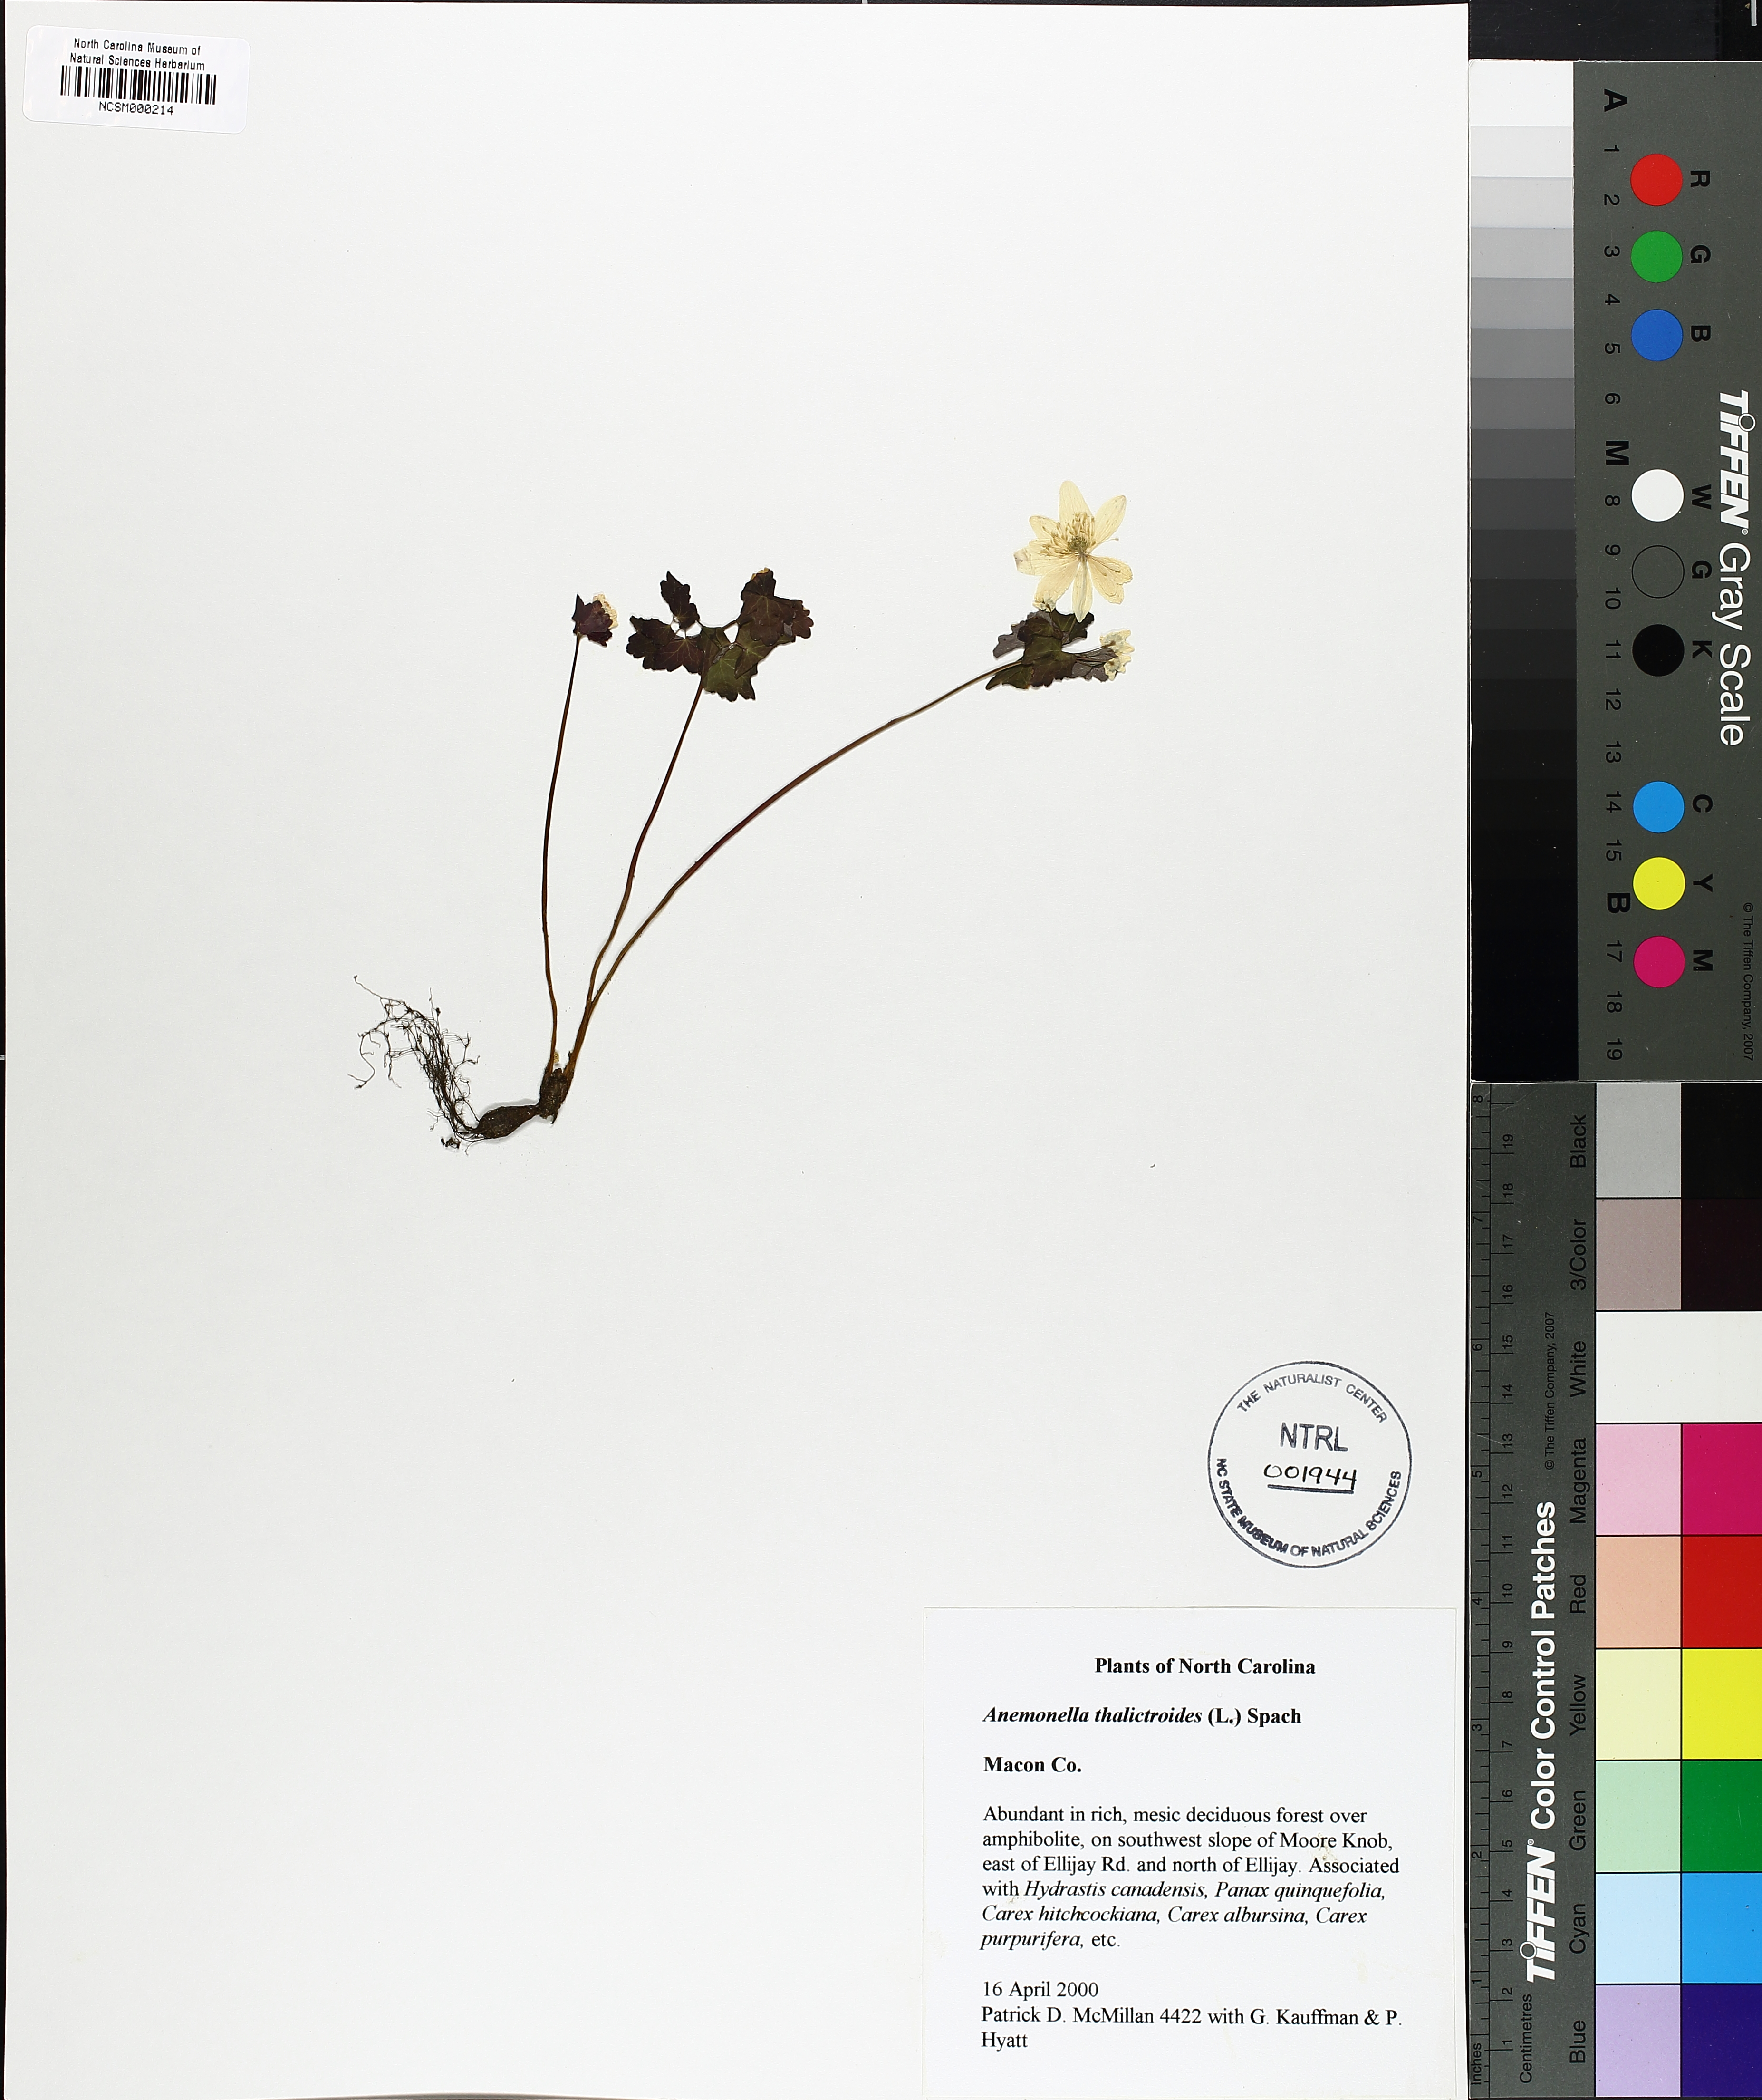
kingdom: Plantae
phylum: Tracheophyta
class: Magnoliopsida
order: Ranunculales
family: Ranunculaceae
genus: Thalictrum
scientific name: Thalictrum thalictroides
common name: Rue-anemone
